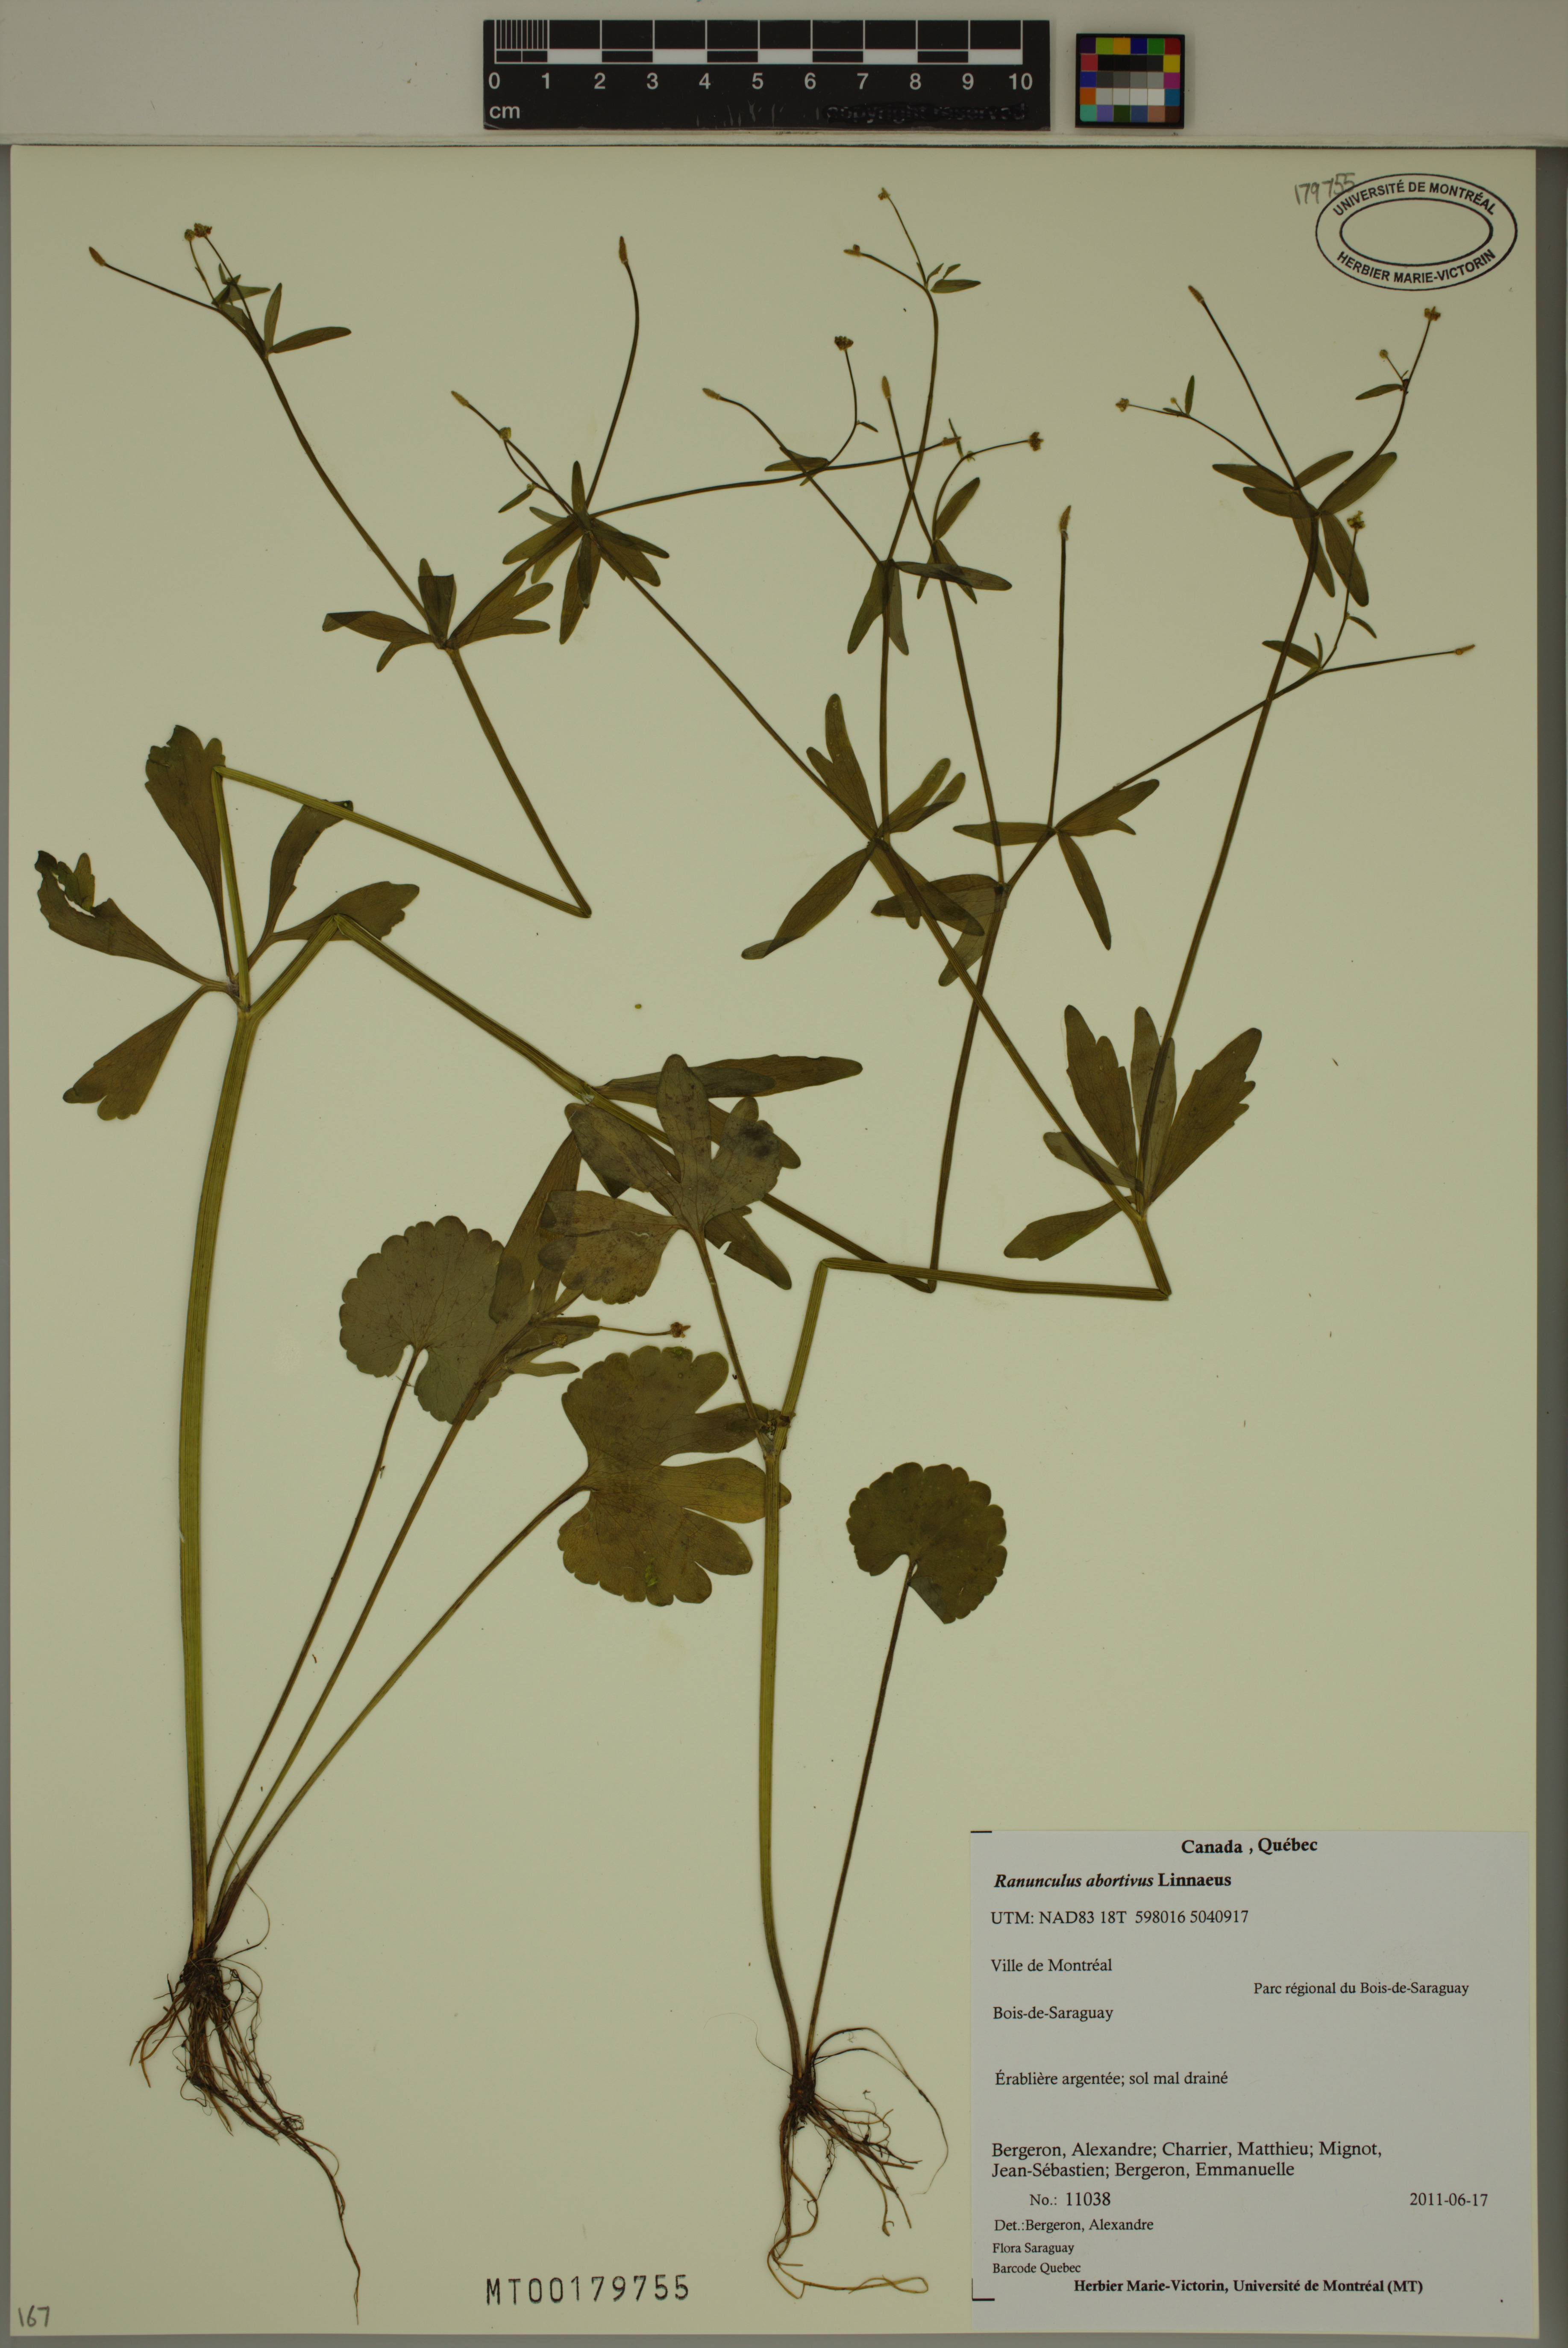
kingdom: Plantae
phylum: Tracheophyta
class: Magnoliopsida
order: Ranunculales
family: Ranunculaceae
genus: Ranunculus
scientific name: Ranunculus abortivus
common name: Early wood buttercup
